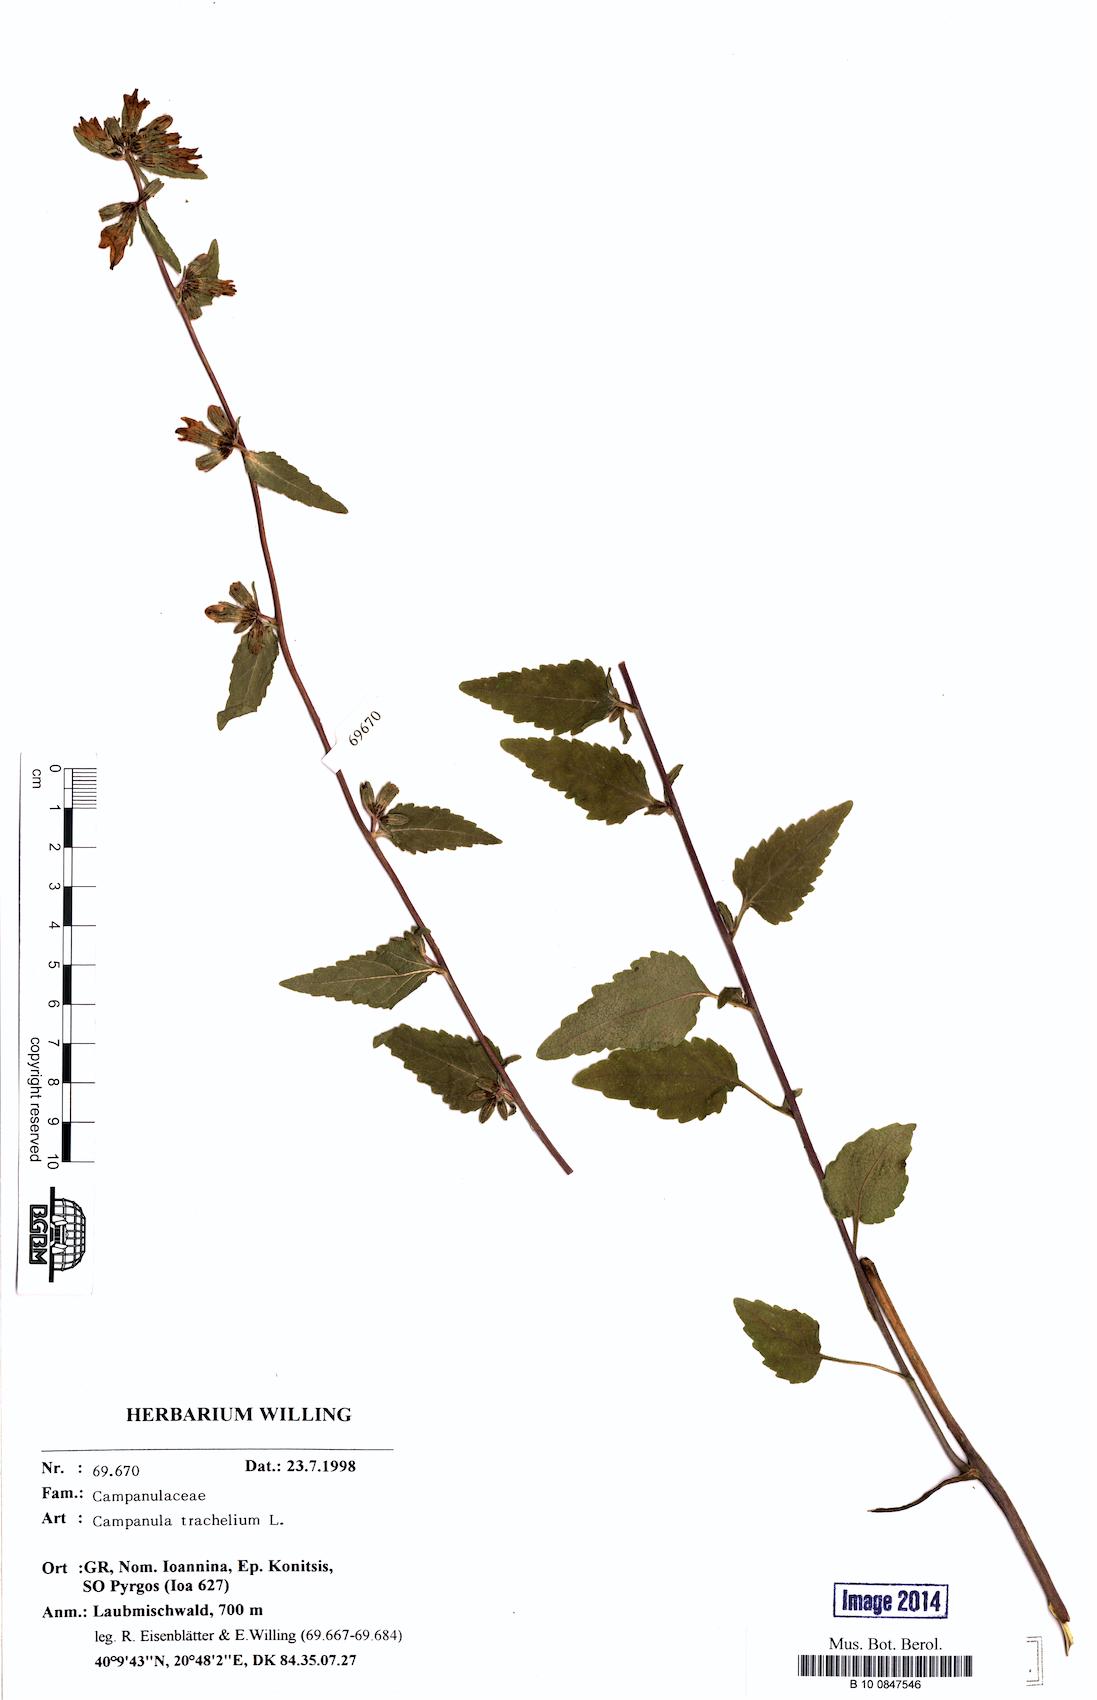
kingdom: Plantae
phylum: Tracheophyta
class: Magnoliopsida
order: Asterales
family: Campanulaceae
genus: Campanula
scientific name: Campanula trachelium
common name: Nettle-leaved bellflower
